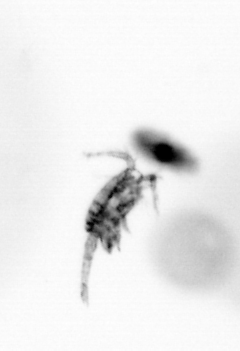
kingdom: Animalia
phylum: Arthropoda
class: Copepoda
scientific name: Copepoda
